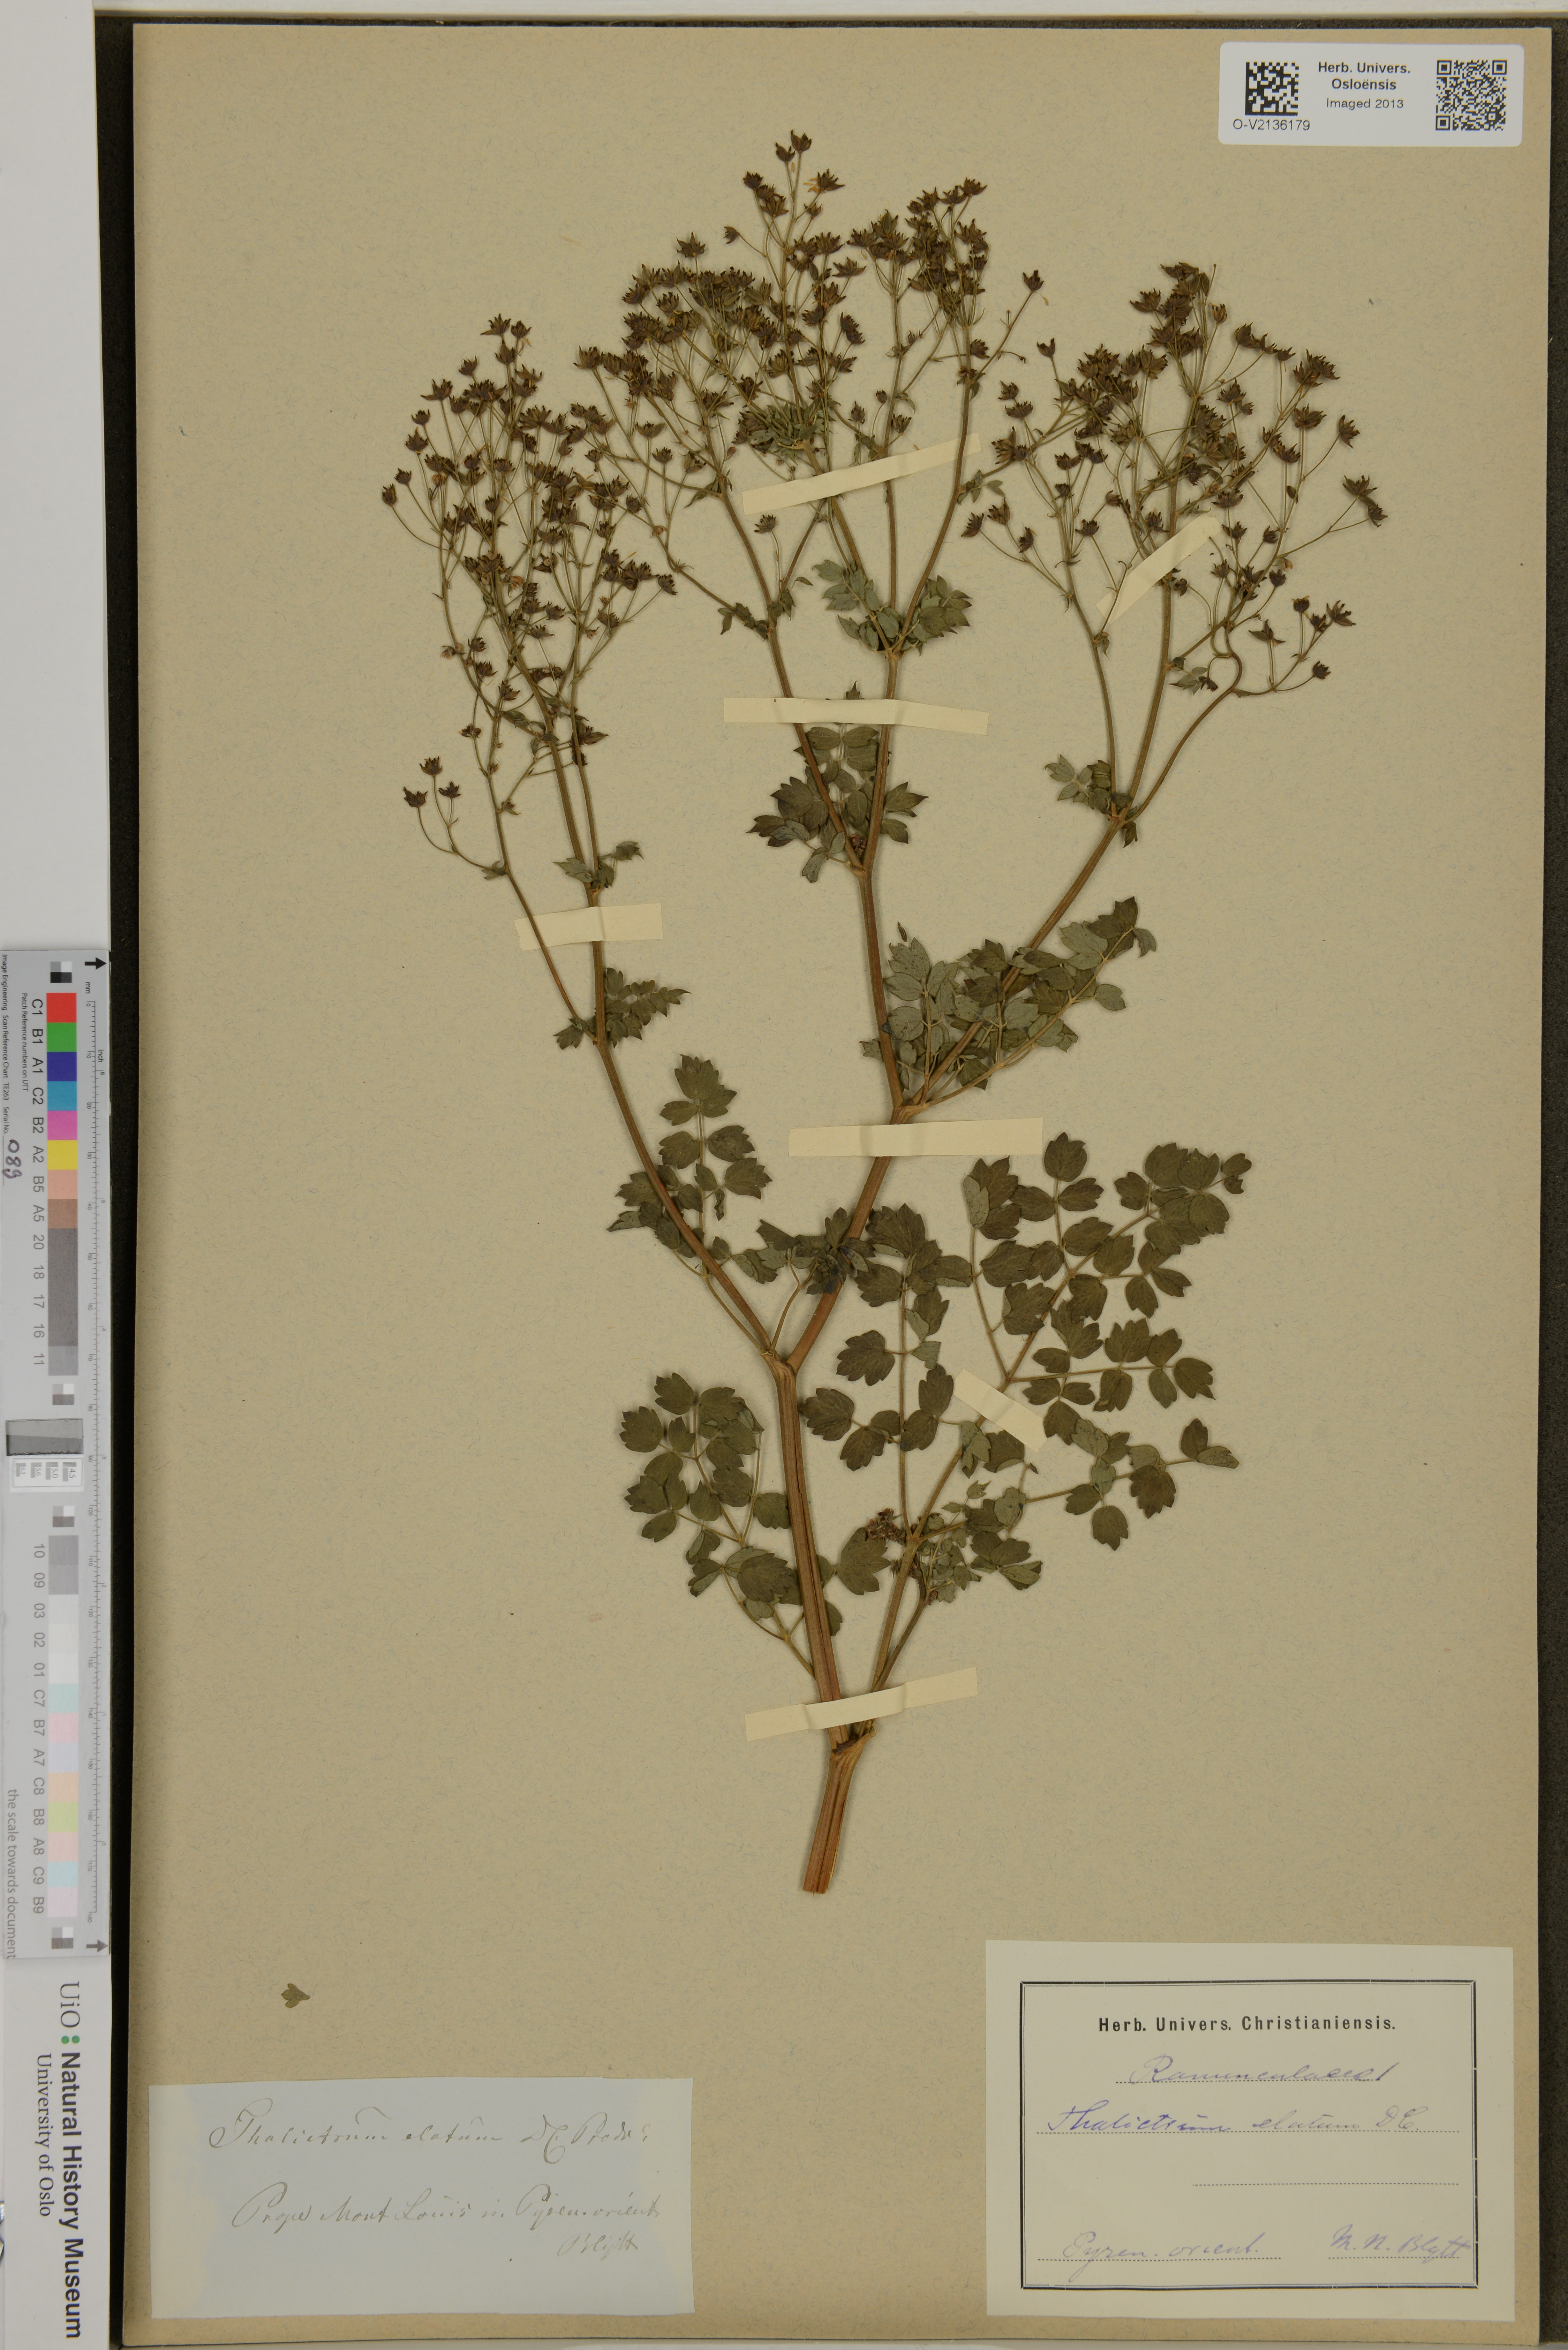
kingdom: Plantae
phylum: Tracheophyta
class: Magnoliopsida
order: Ranunculales
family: Ranunculaceae
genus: Thalictrum
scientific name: Thalictrum minus
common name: Lesser meadow-rue
